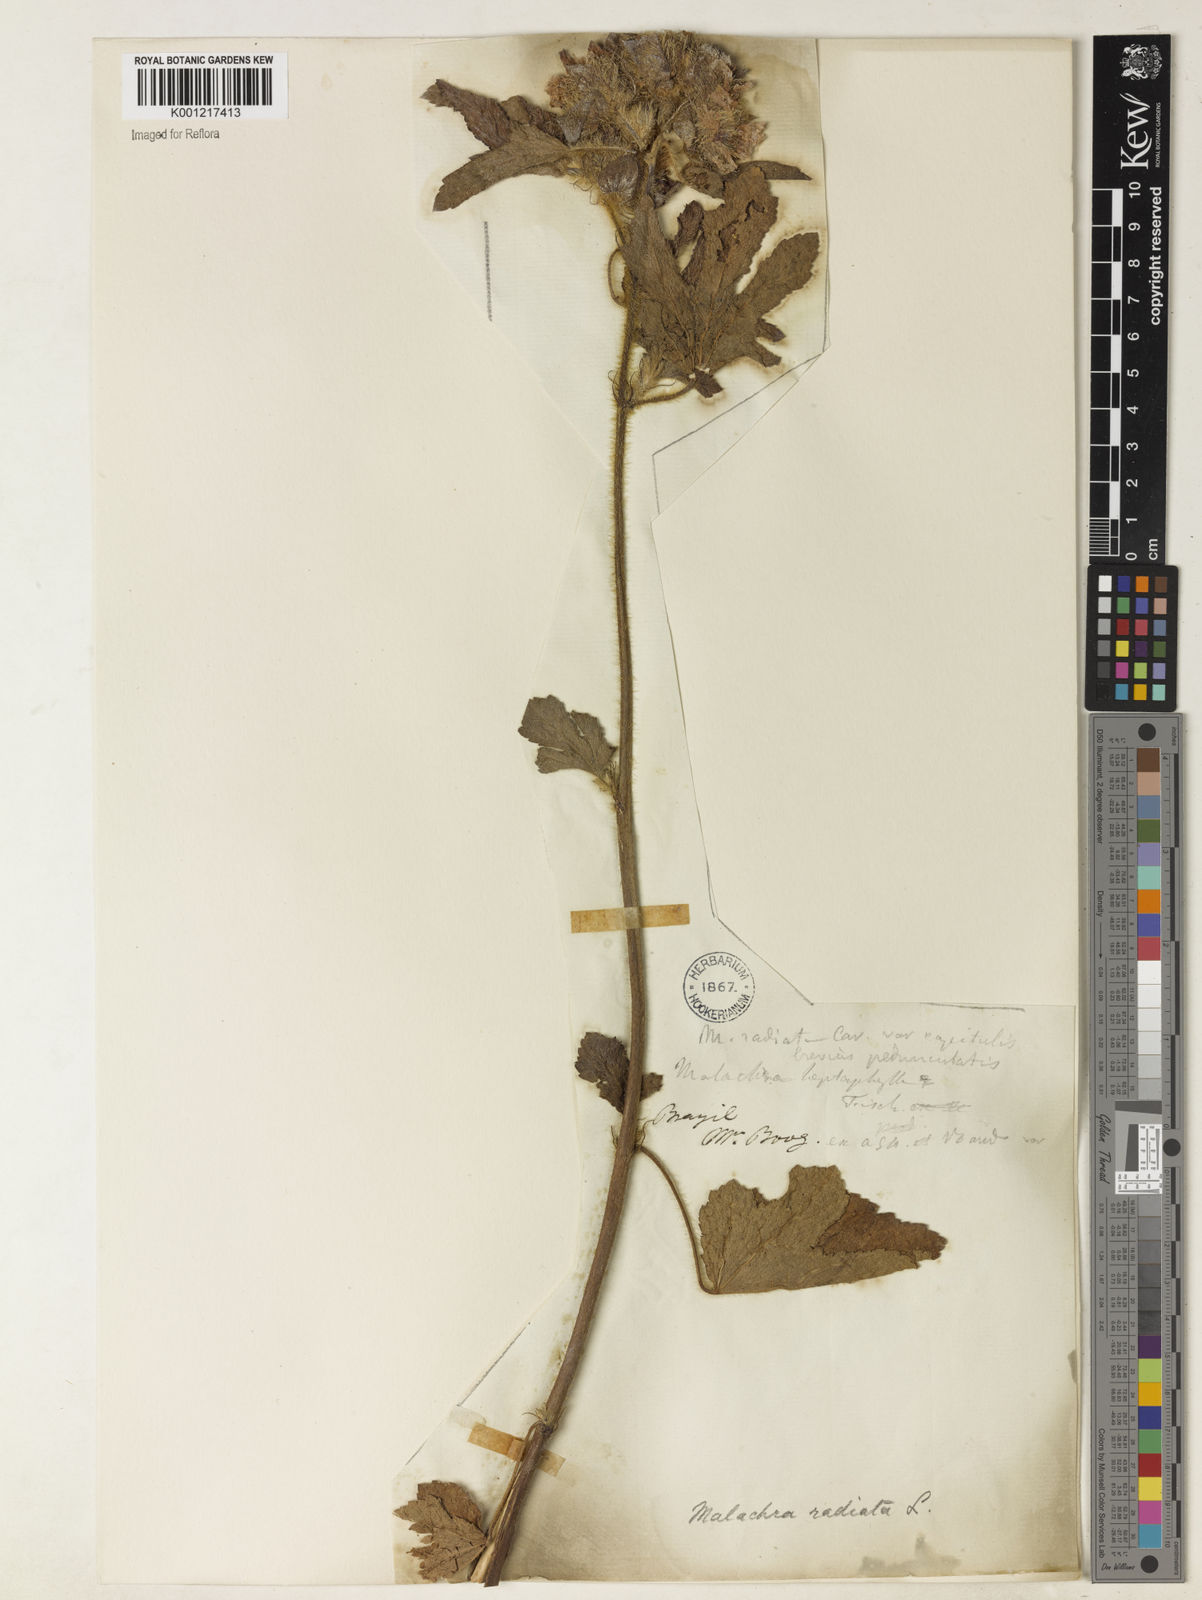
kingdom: Plantae
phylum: Tracheophyta
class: Magnoliopsida
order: Malvales
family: Malvaceae
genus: Malachra
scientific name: Malachra capitata
